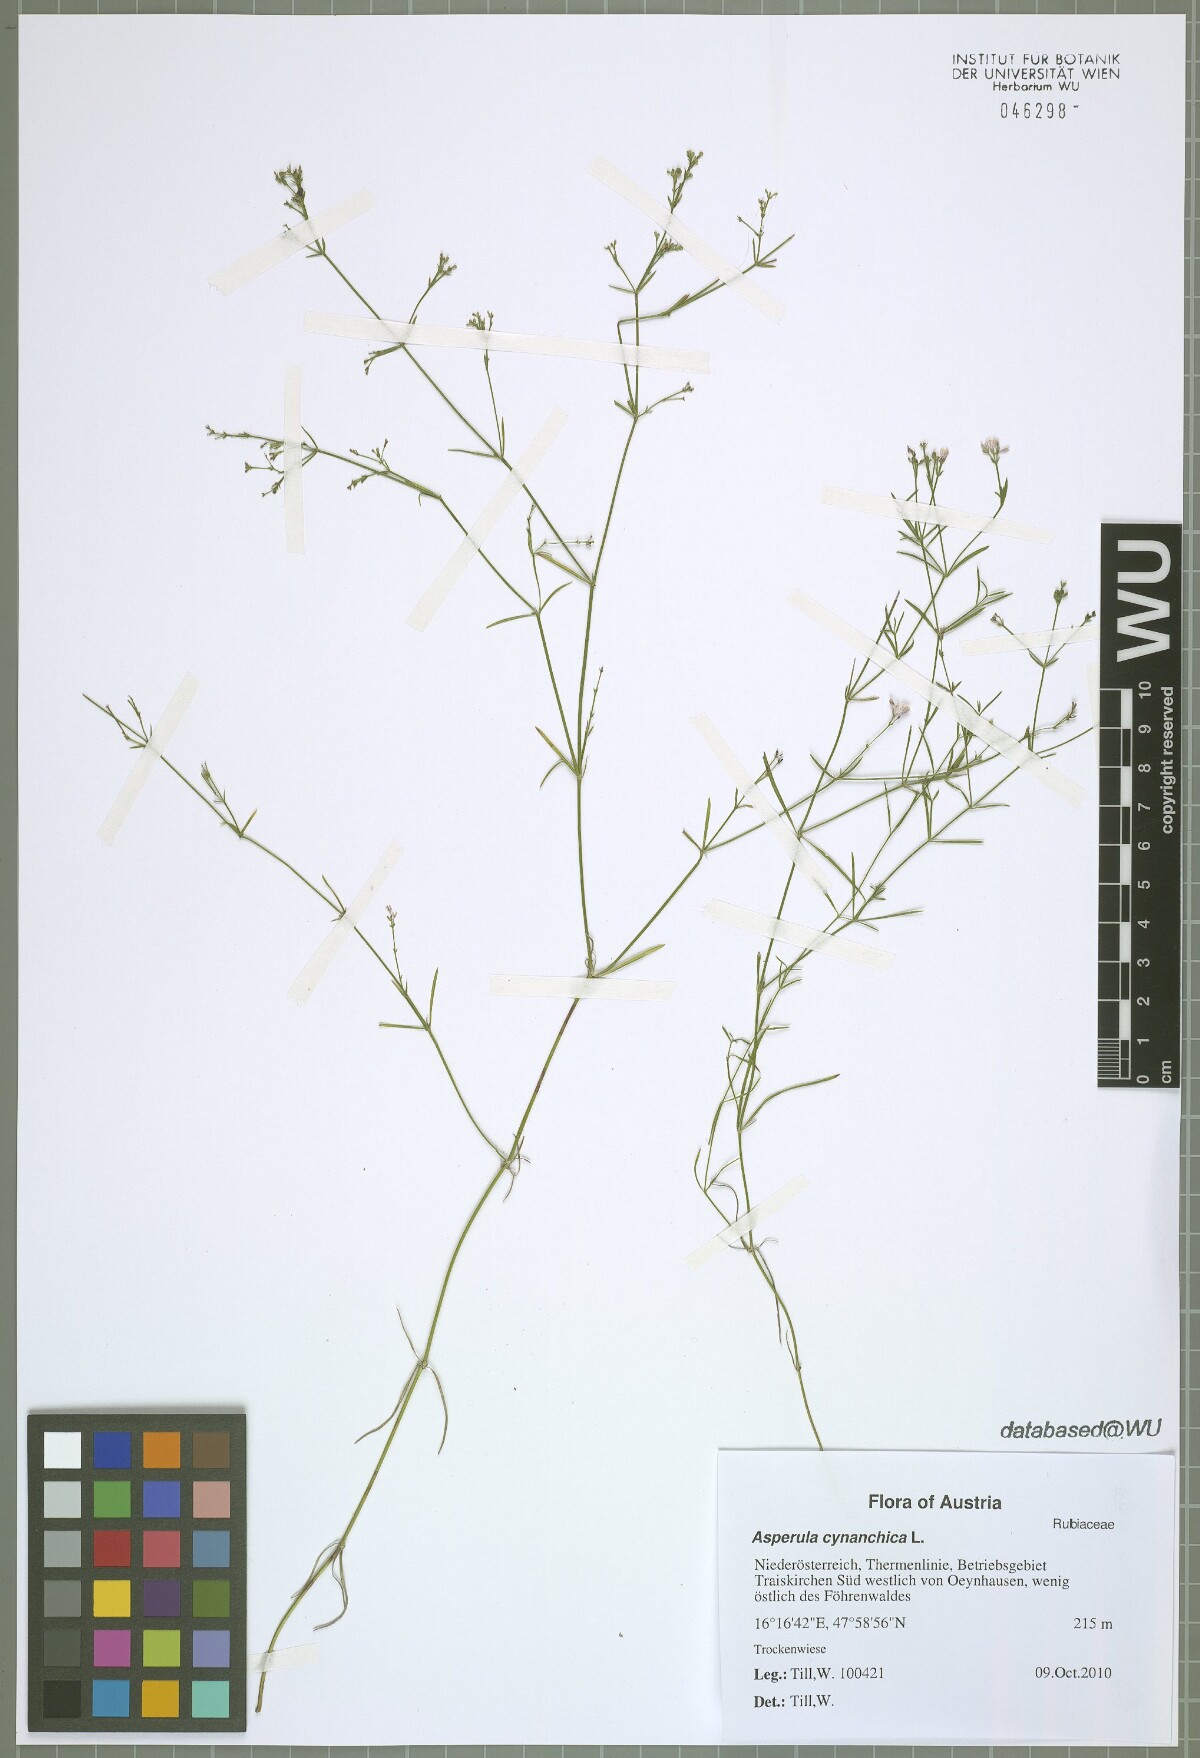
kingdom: Plantae
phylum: Tracheophyta
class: Magnoliopsida
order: Gentianales
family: Rubiaceae
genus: Cynanchica
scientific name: Cynanchica pyrenaica
